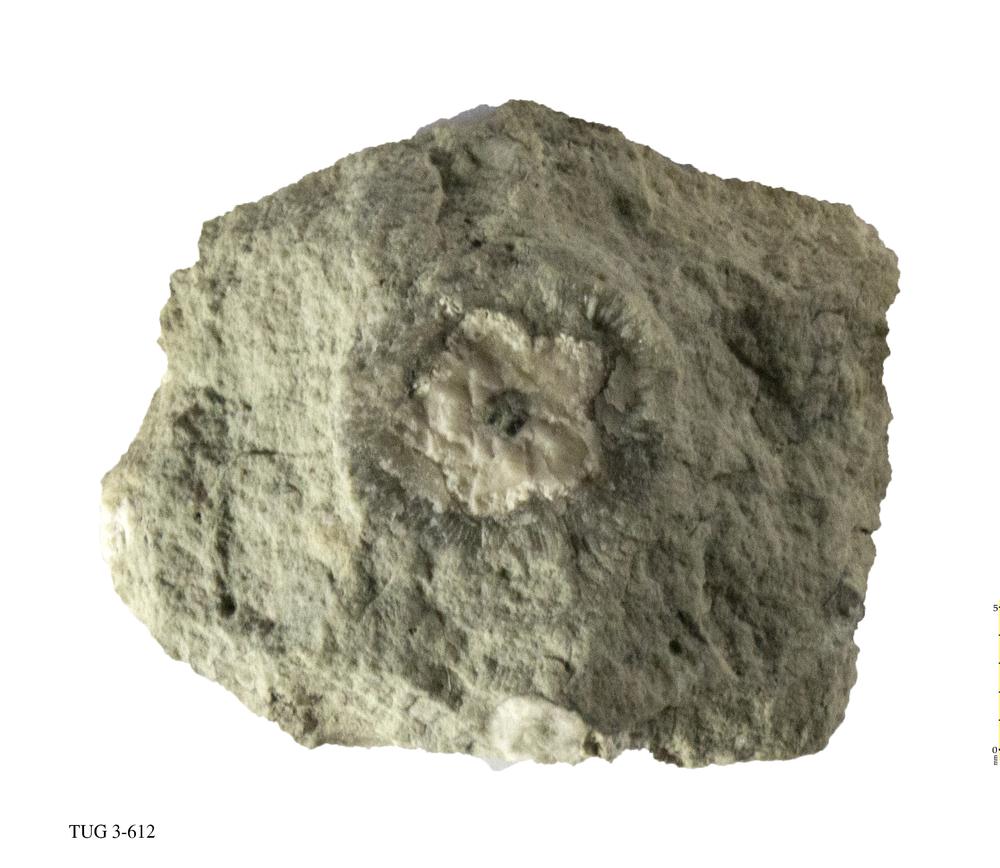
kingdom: Animalia
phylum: Echinodermata
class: Crinoidea
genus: Baltocrinus
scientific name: Baltocrinus
